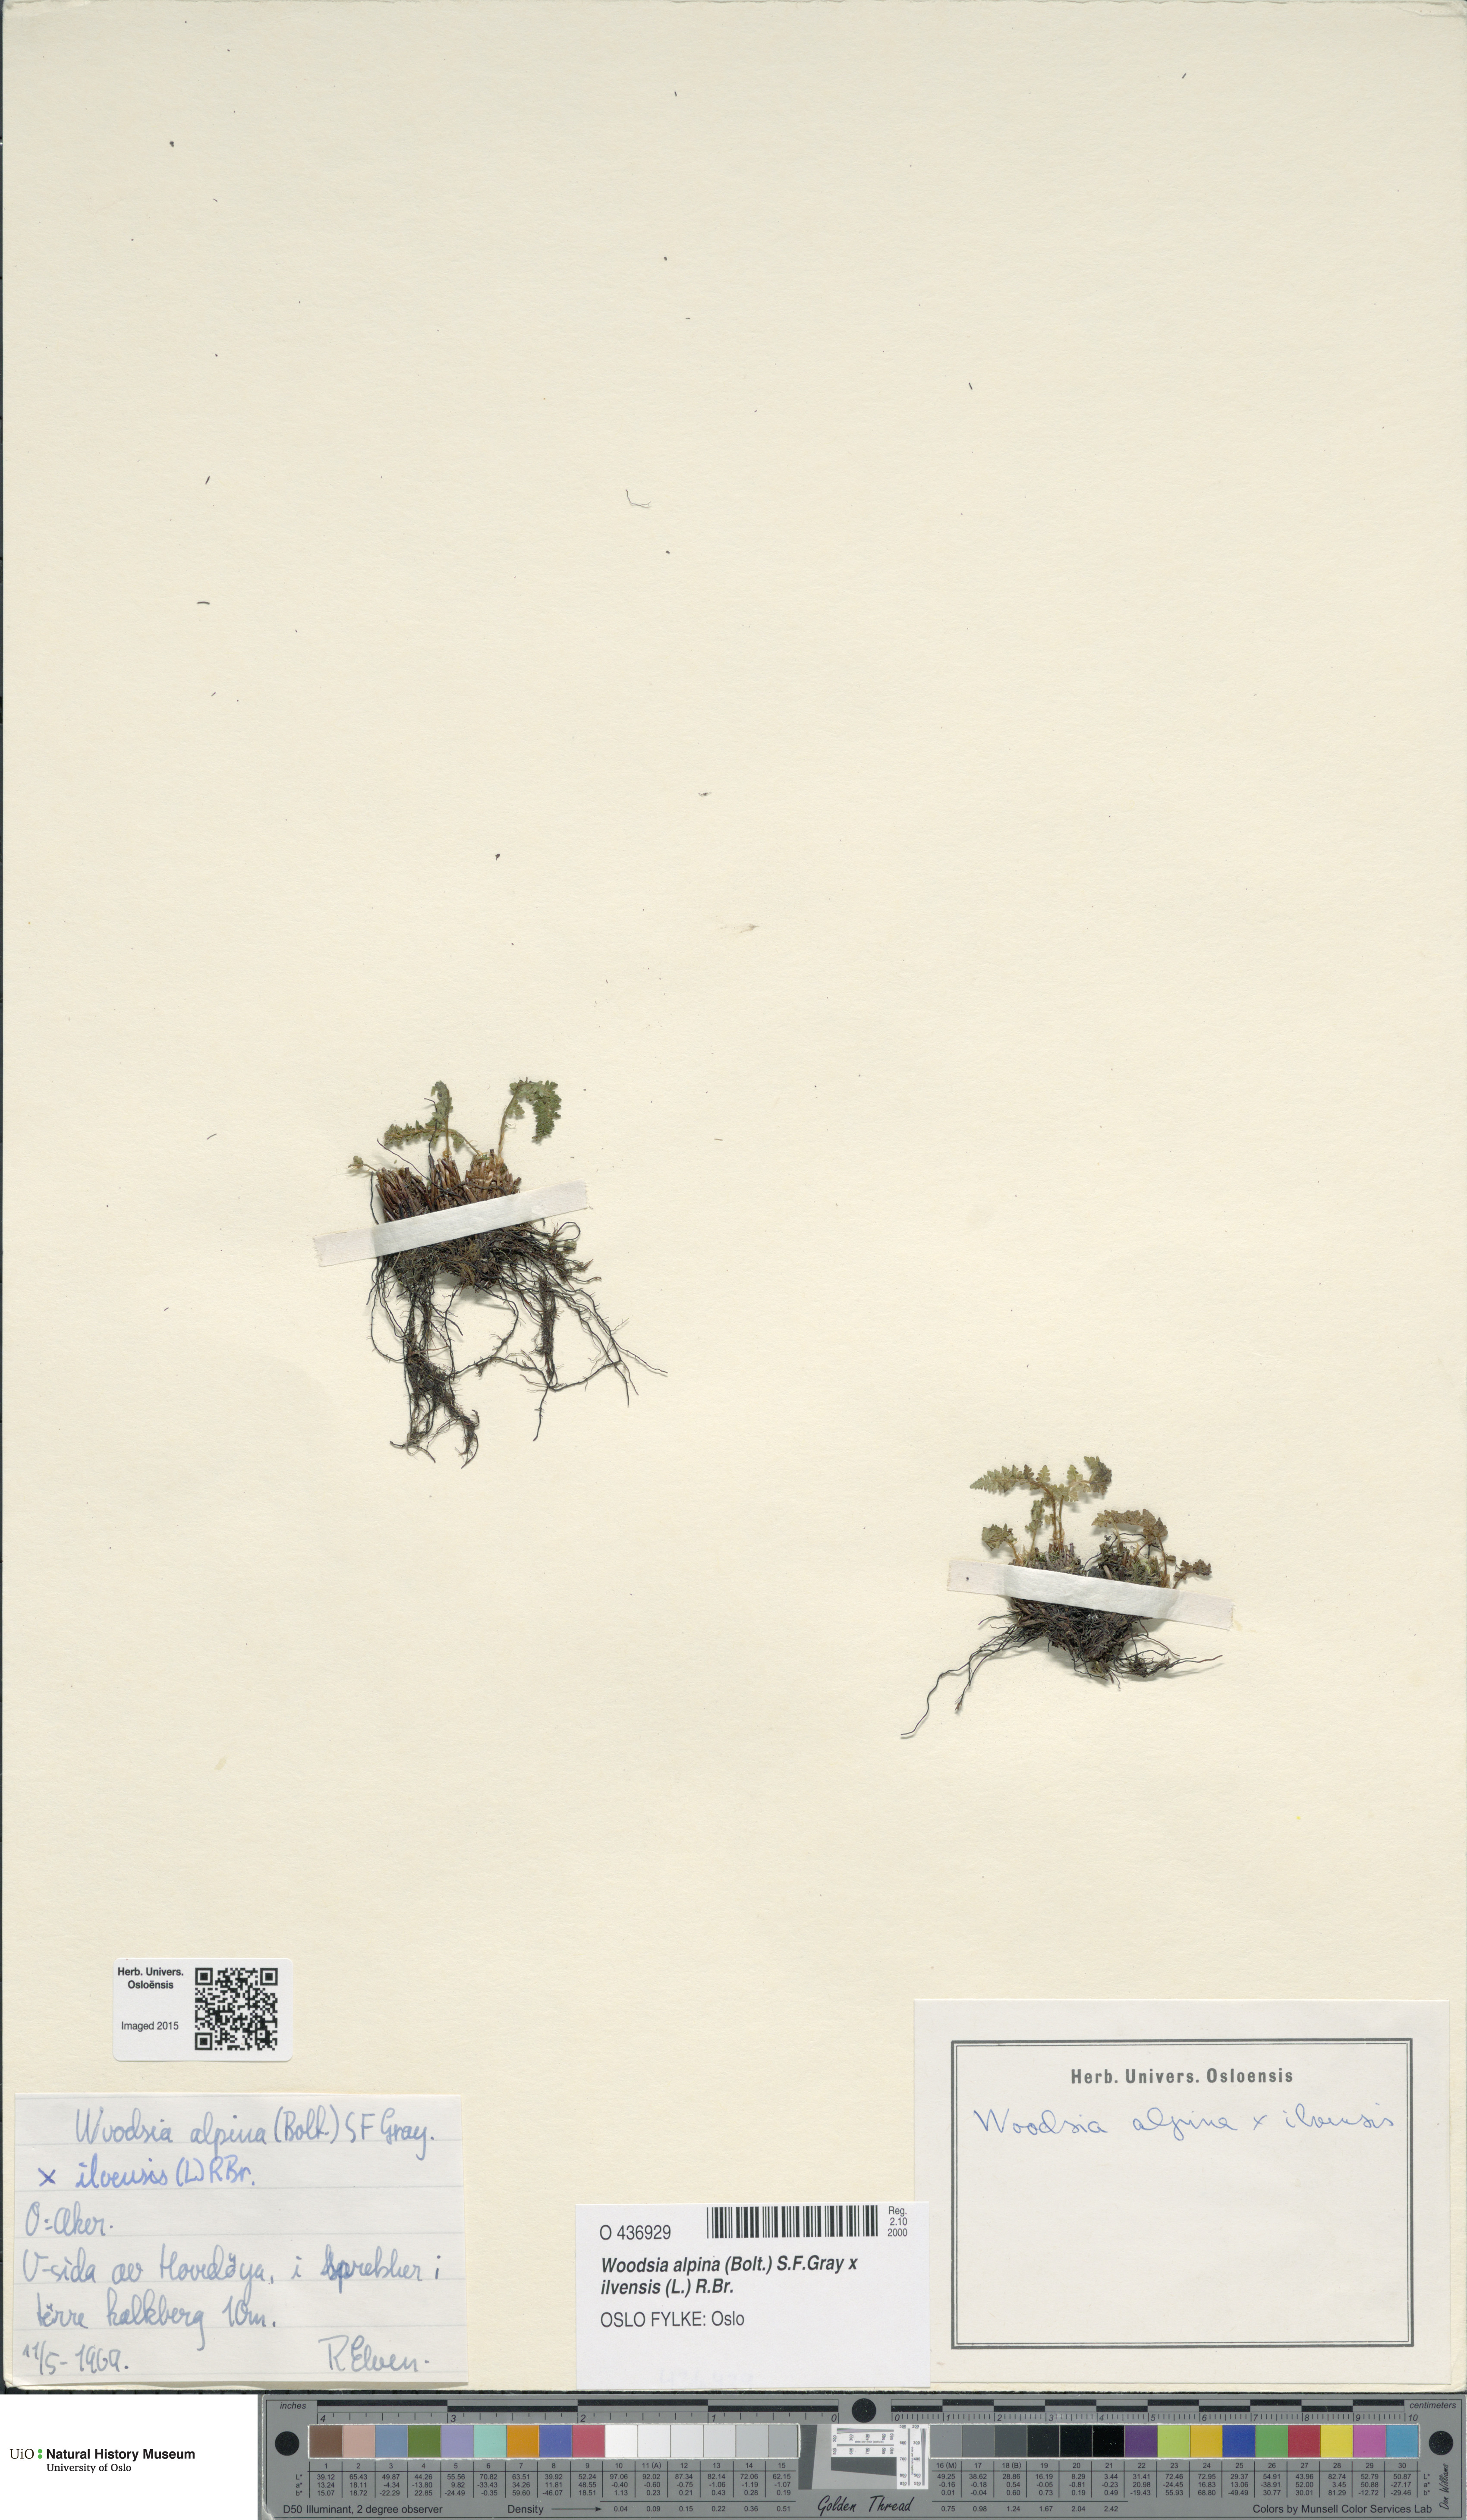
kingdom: Plantae
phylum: Tracheophyta
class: Polypodiopsida
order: Polypodiales
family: Woodsiaceae
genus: Woodsia
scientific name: Woodsia
